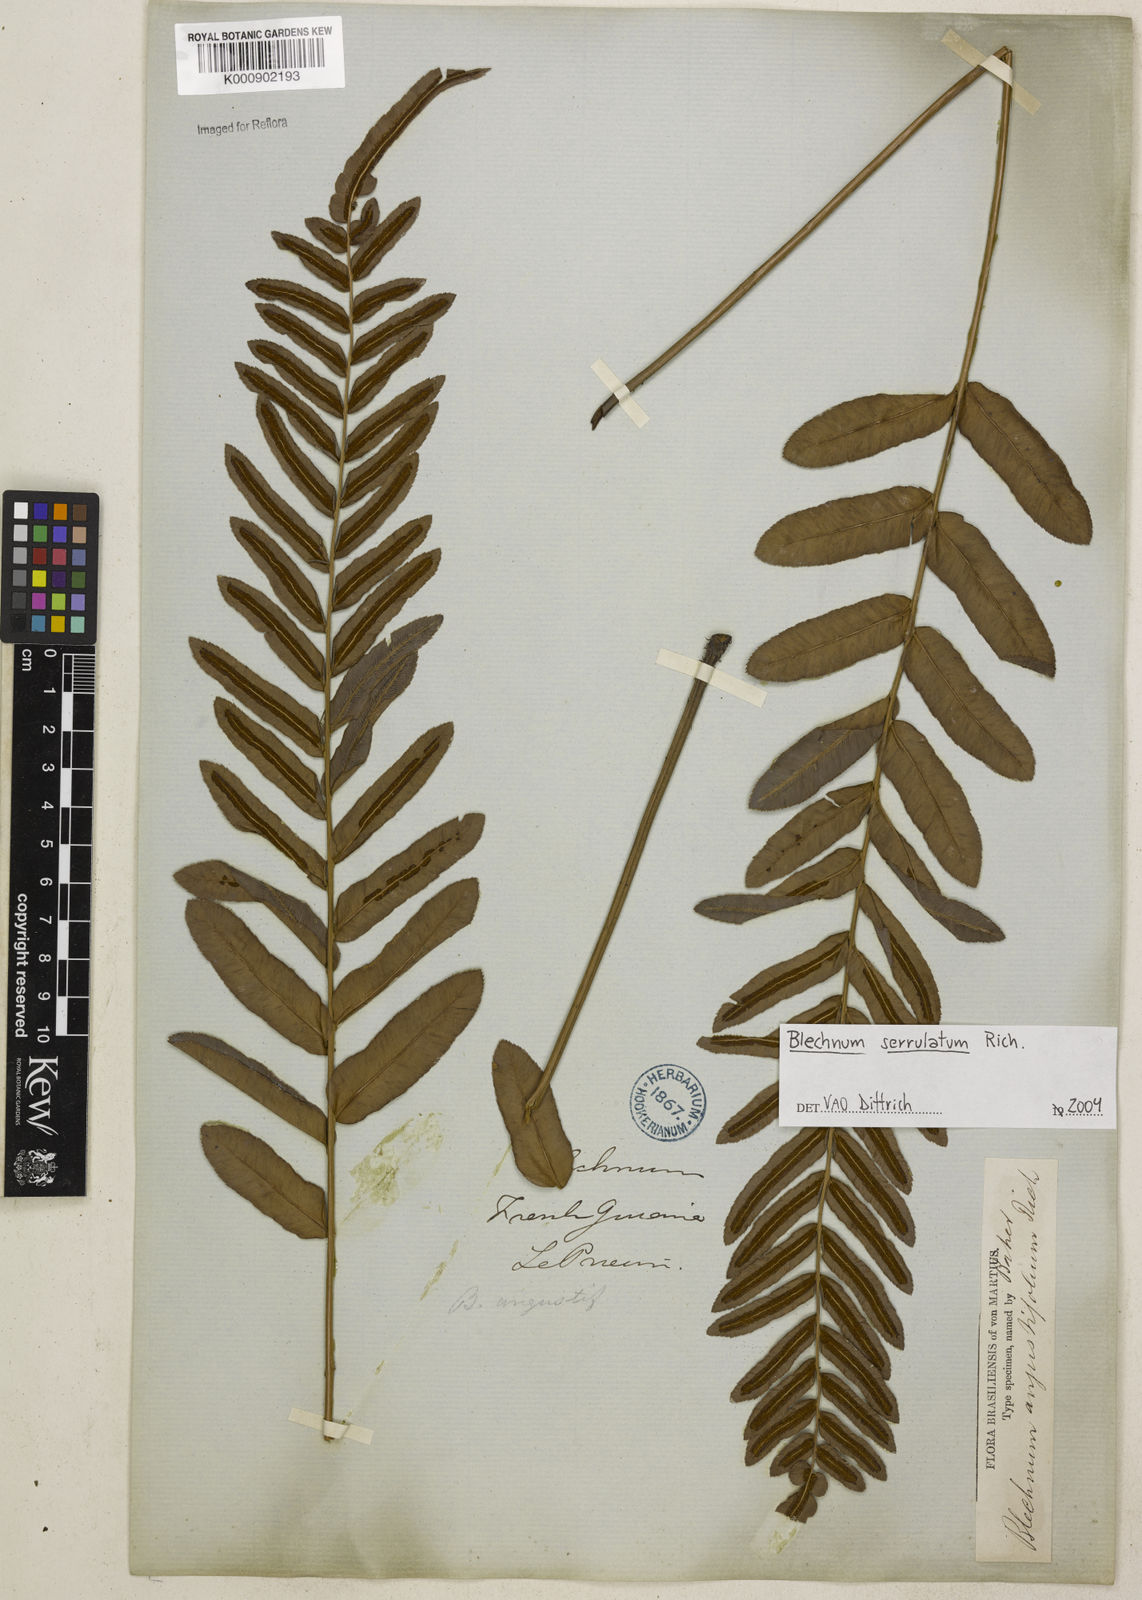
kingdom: Plantae
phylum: Tracheophyta
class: Polypodiopsida
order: Polypodiales
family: Blechnaceae
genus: Telmatoblechnum
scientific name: Telmatoblechnum serrulatum
